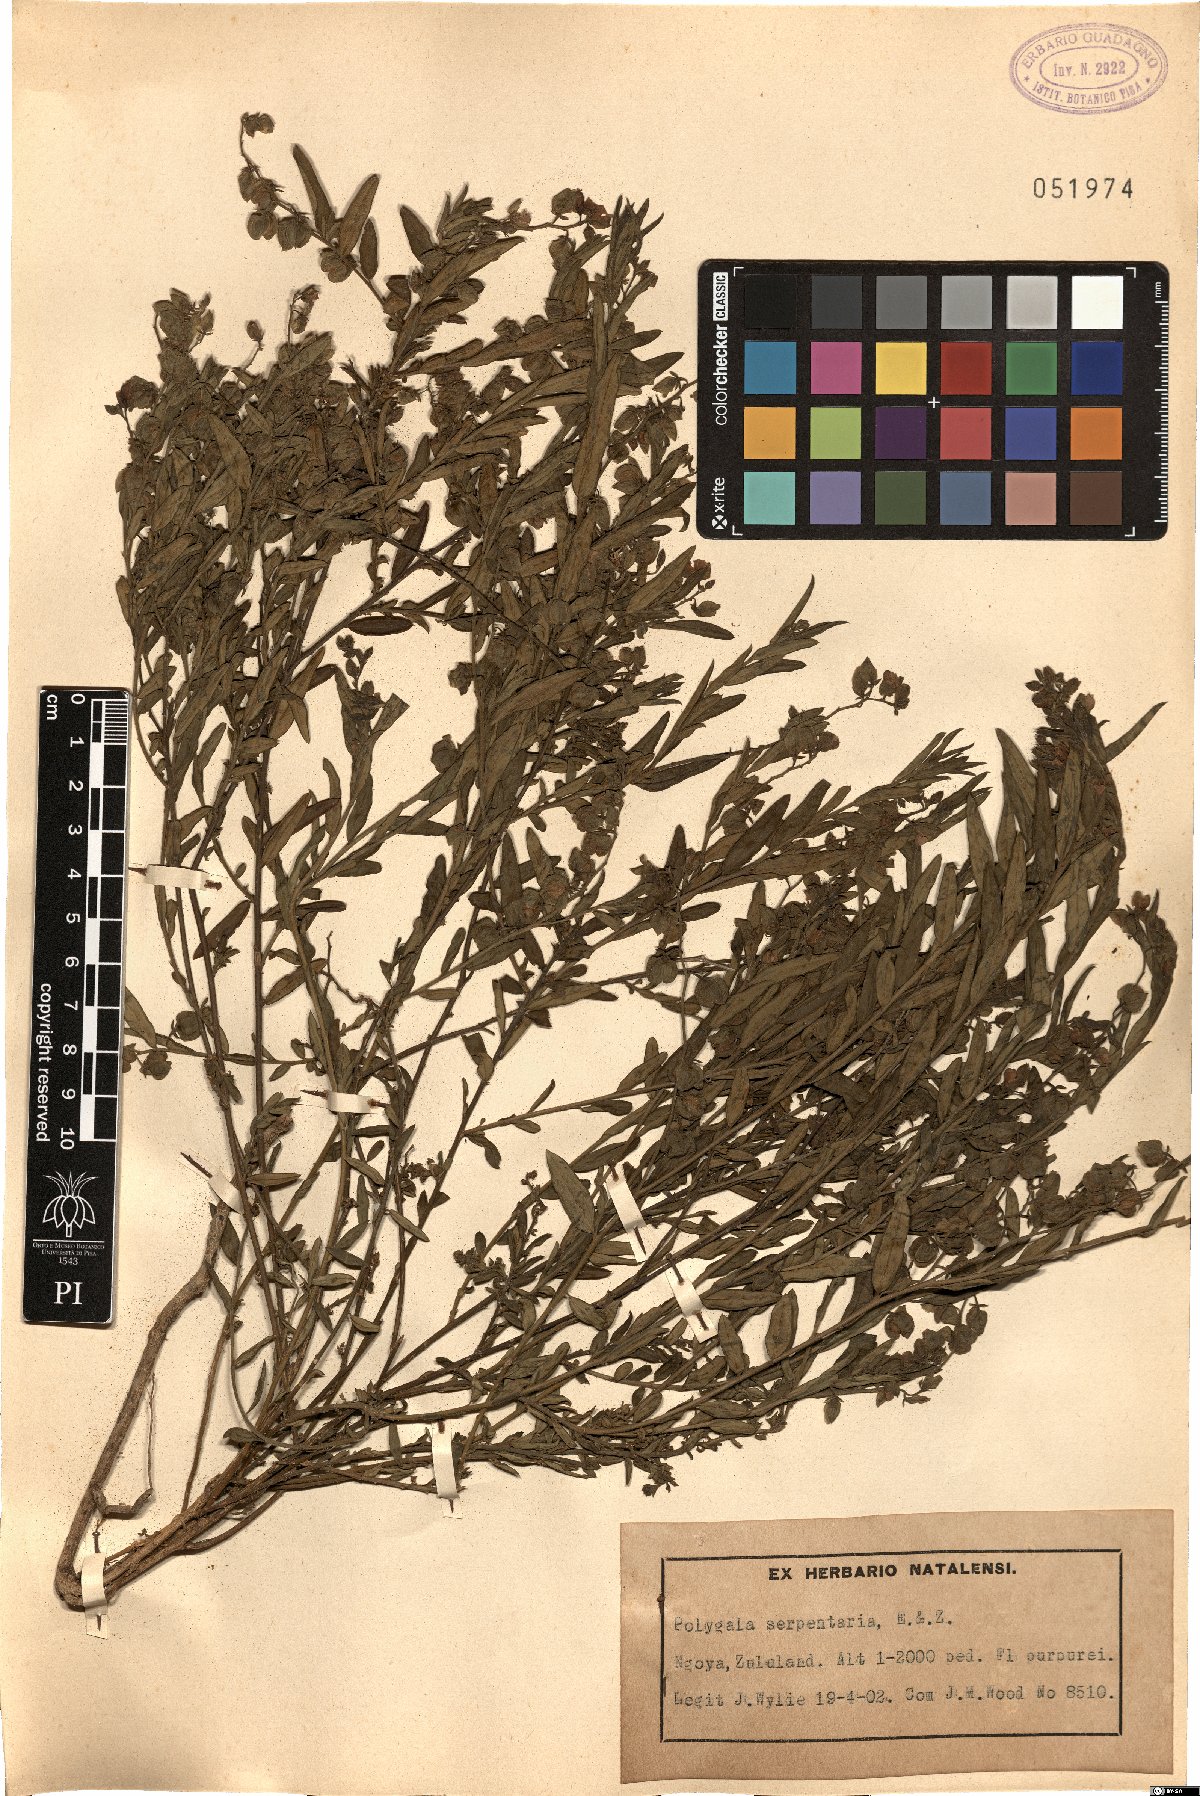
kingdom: Plantae
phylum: Tracheophyta
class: Magnoliopsida
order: Fabales
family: Polygalaceae
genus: Polygala
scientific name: Polygala serpentaria
